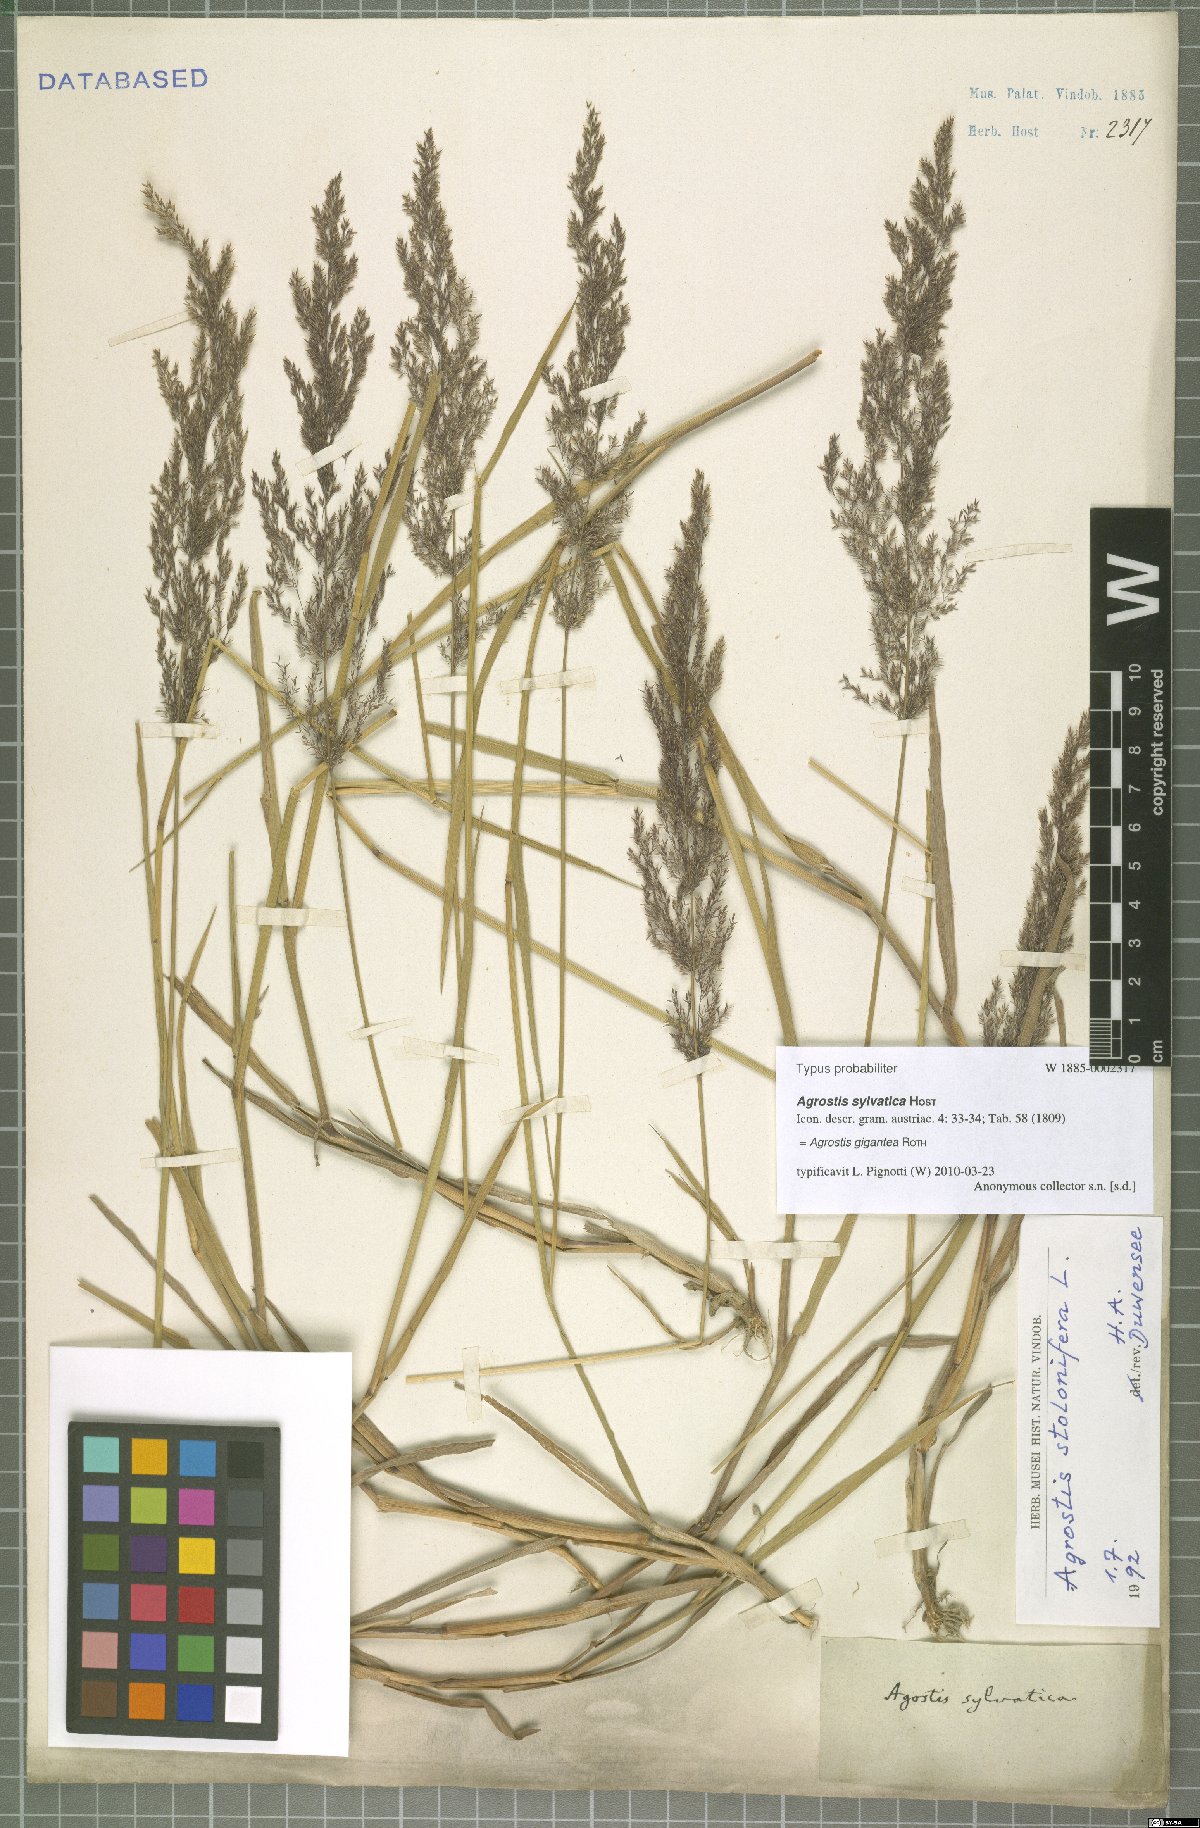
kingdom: Plantae
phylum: Tracheophyta
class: Liliopsida
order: Poales
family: Poaceae
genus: Agrostis
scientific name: Agrostis gigantea
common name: Black bent
